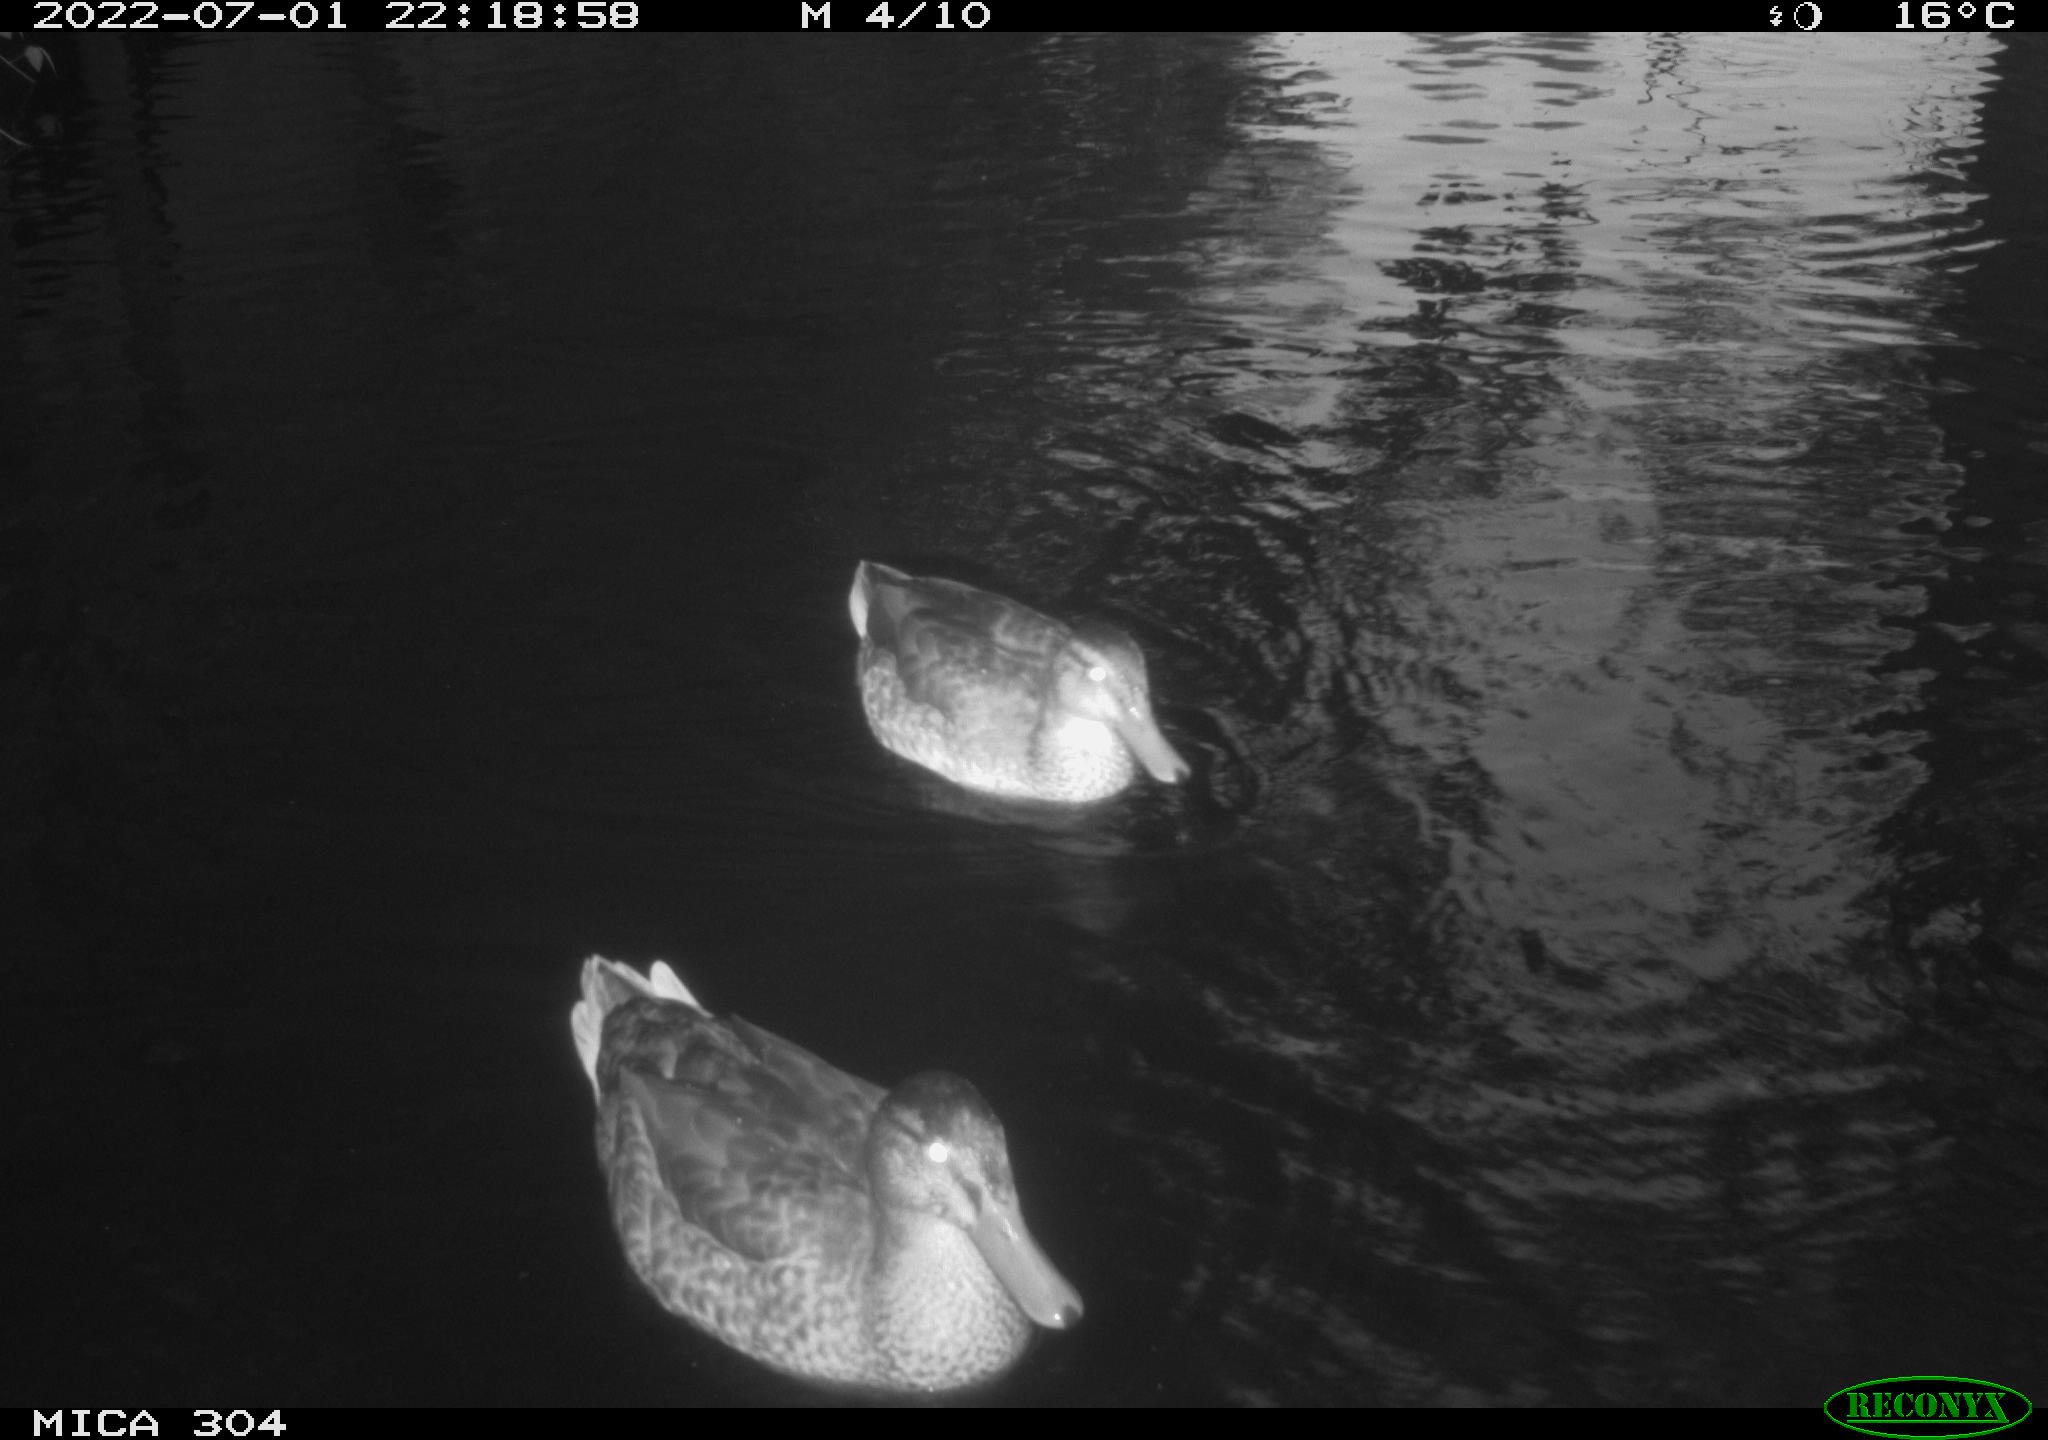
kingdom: Animalia
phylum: Chordata
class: Aves
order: Anseriformes
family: Anatidae
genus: Mareca
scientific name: Mareca strepera
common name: Gadwall
